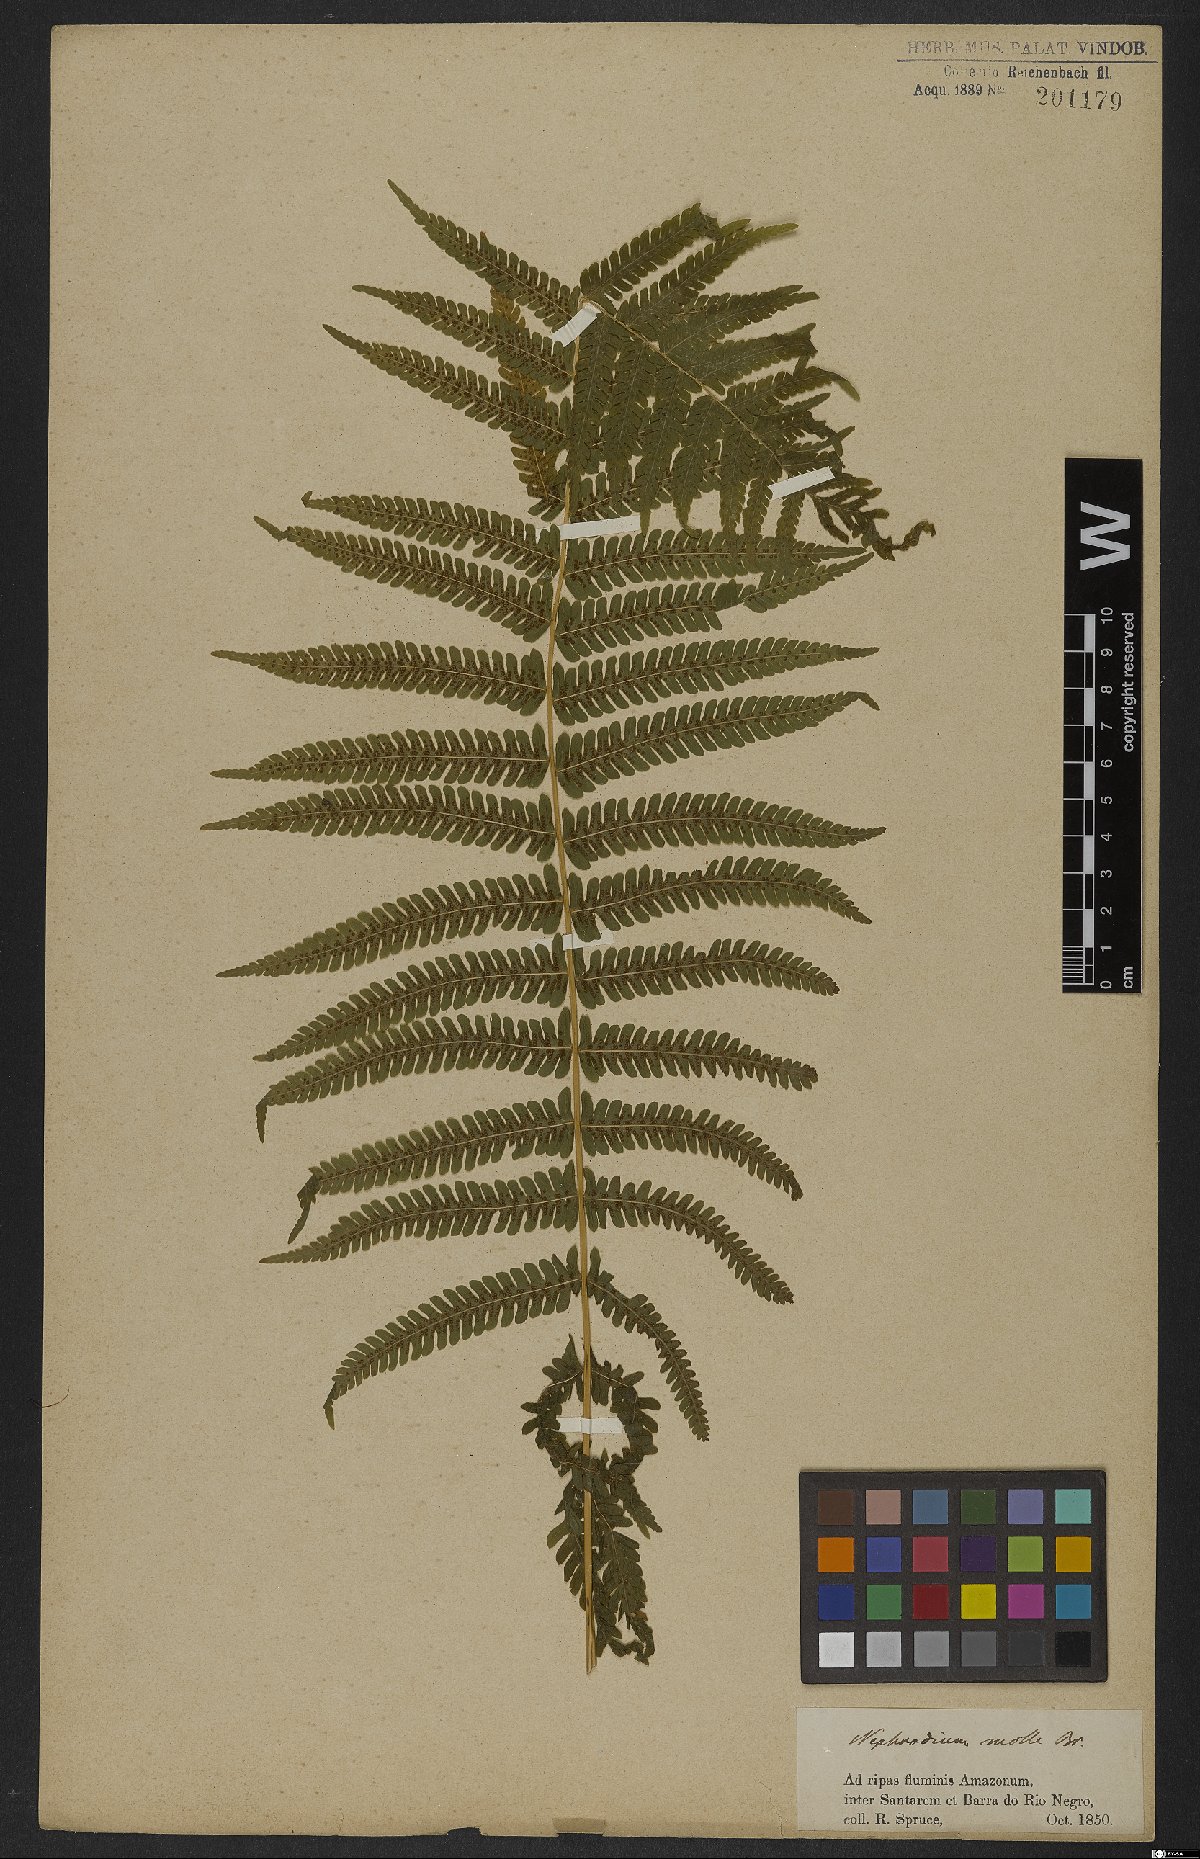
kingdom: Plantae
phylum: Tracheophyta
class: Polypodiopsida
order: Polypodiales
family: Thelypteridaceae
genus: Christella
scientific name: Christella parasitica
